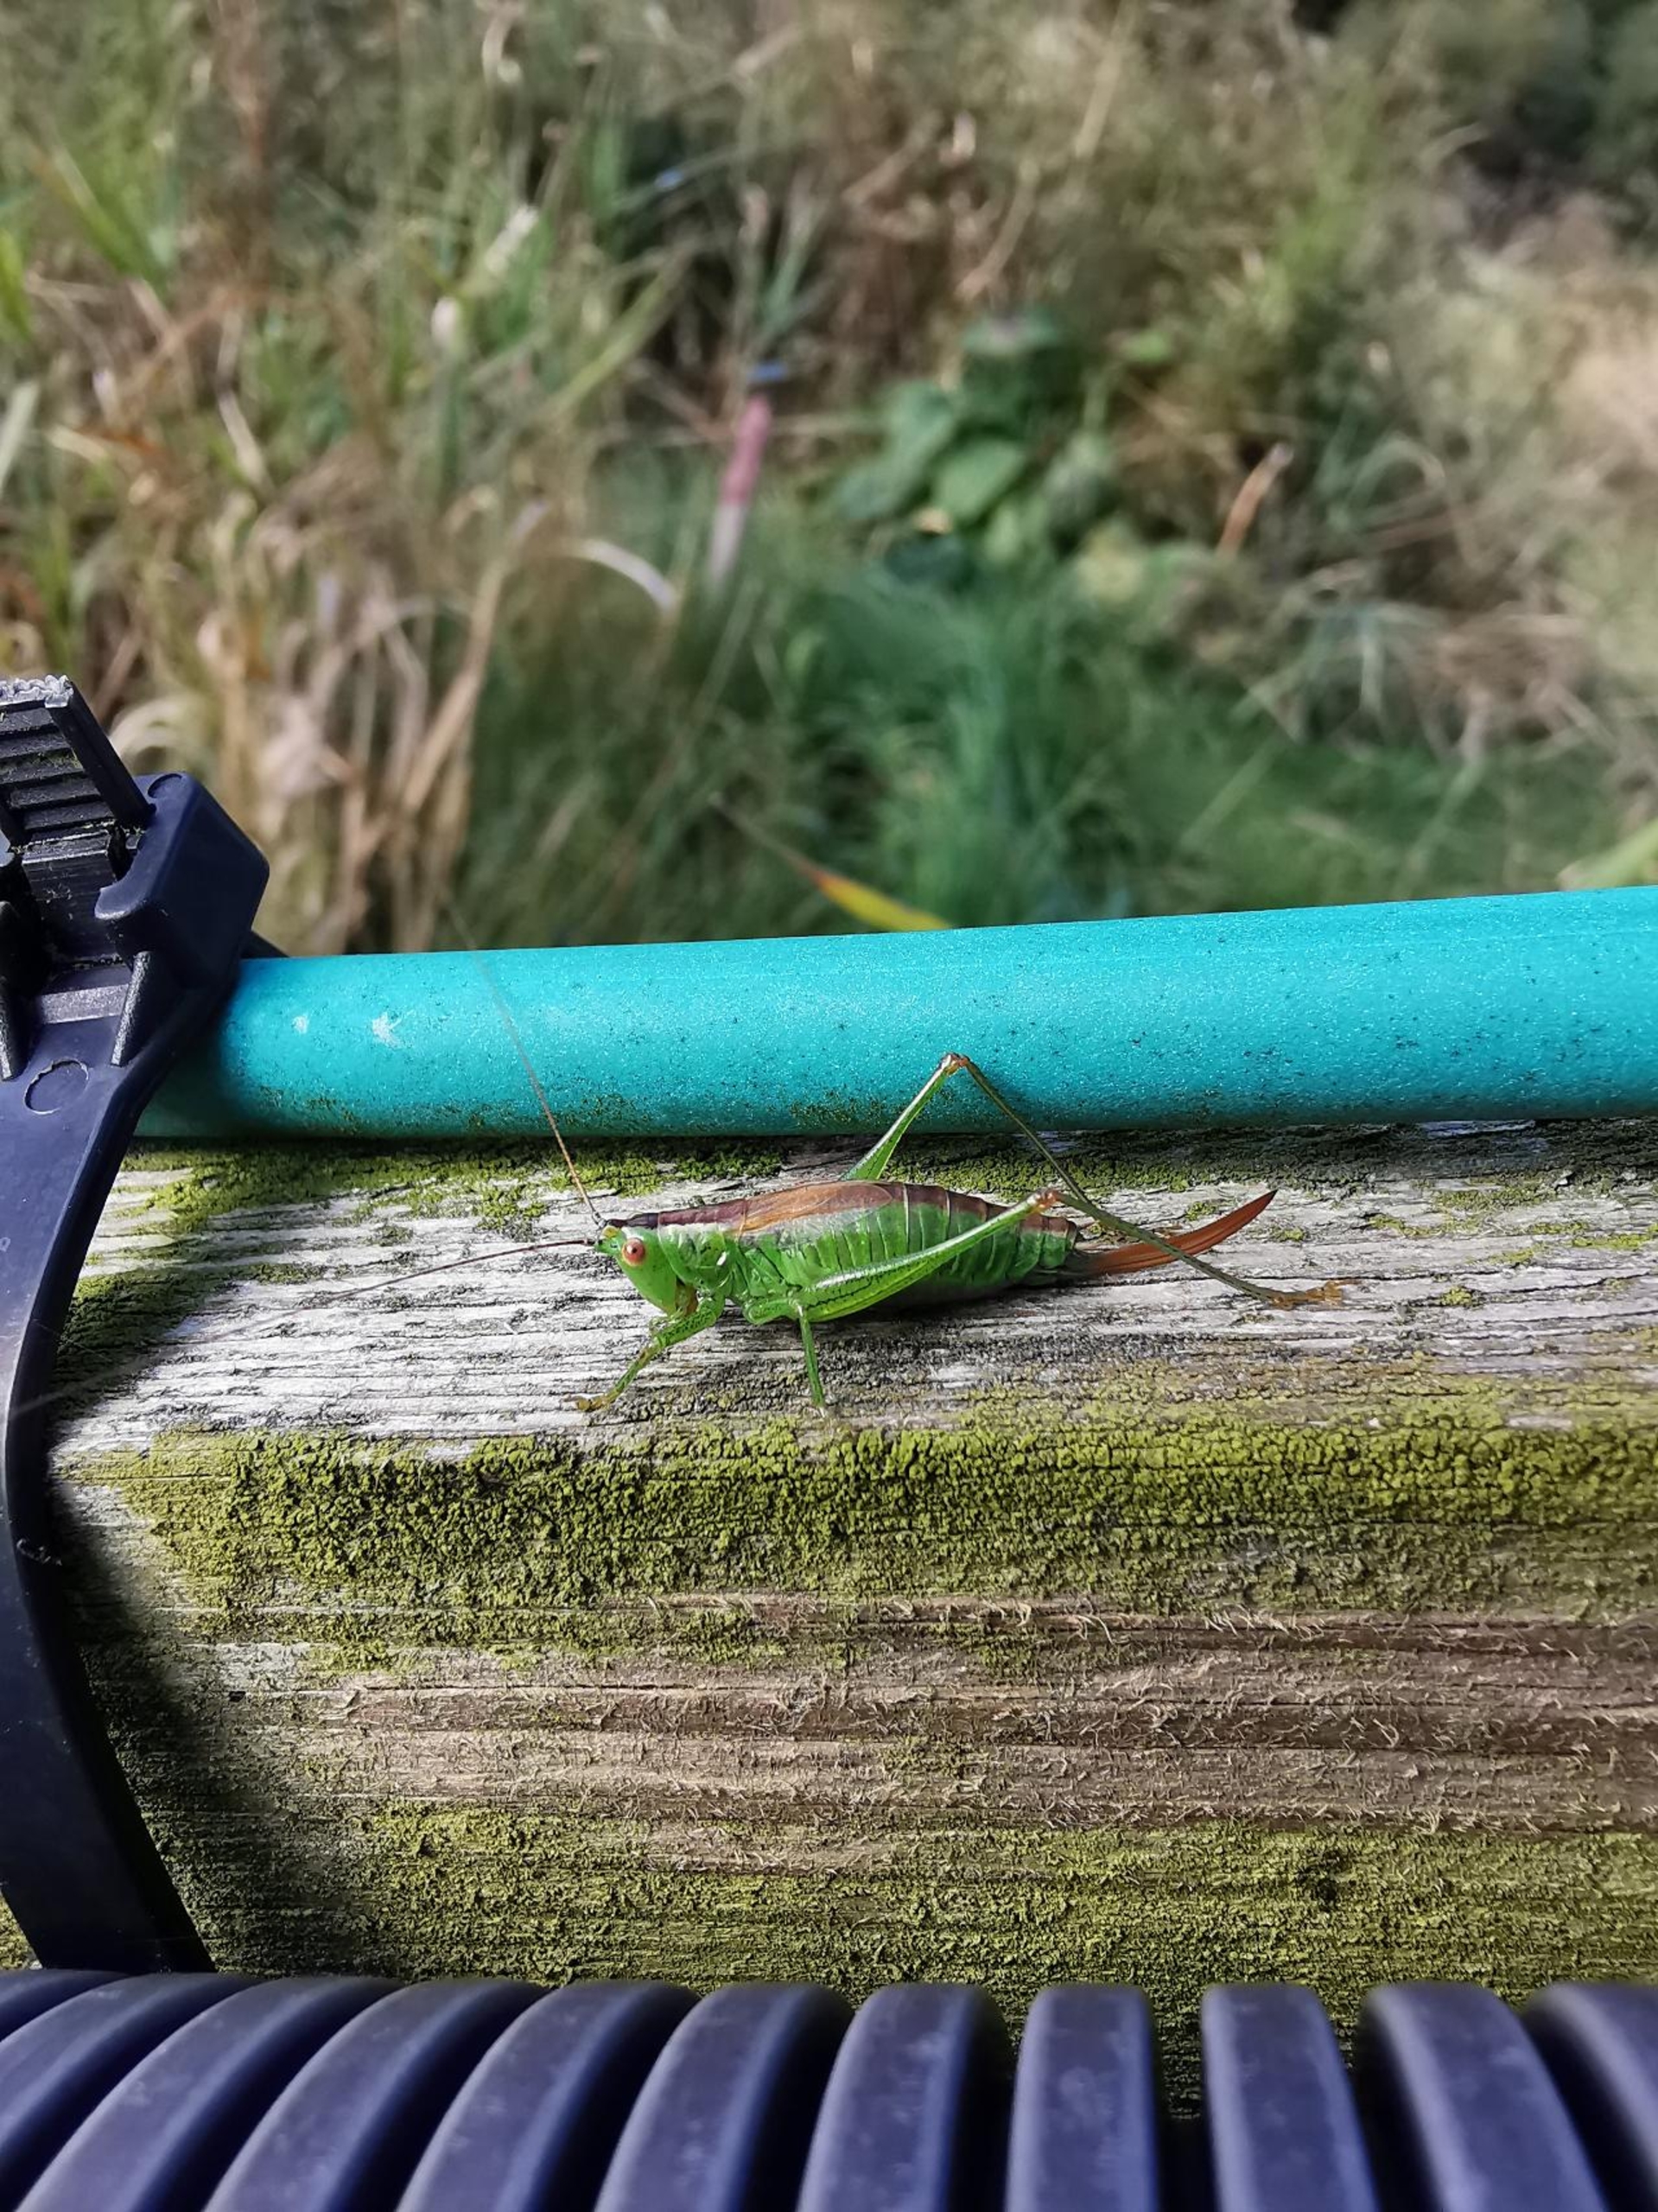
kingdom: Animalia
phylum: Arthropoda
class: Insecta
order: Orthoptera
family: Tettigoniidae
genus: Conocephalus
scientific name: Conocephalus dorsalis
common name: Sivgræshoppe
